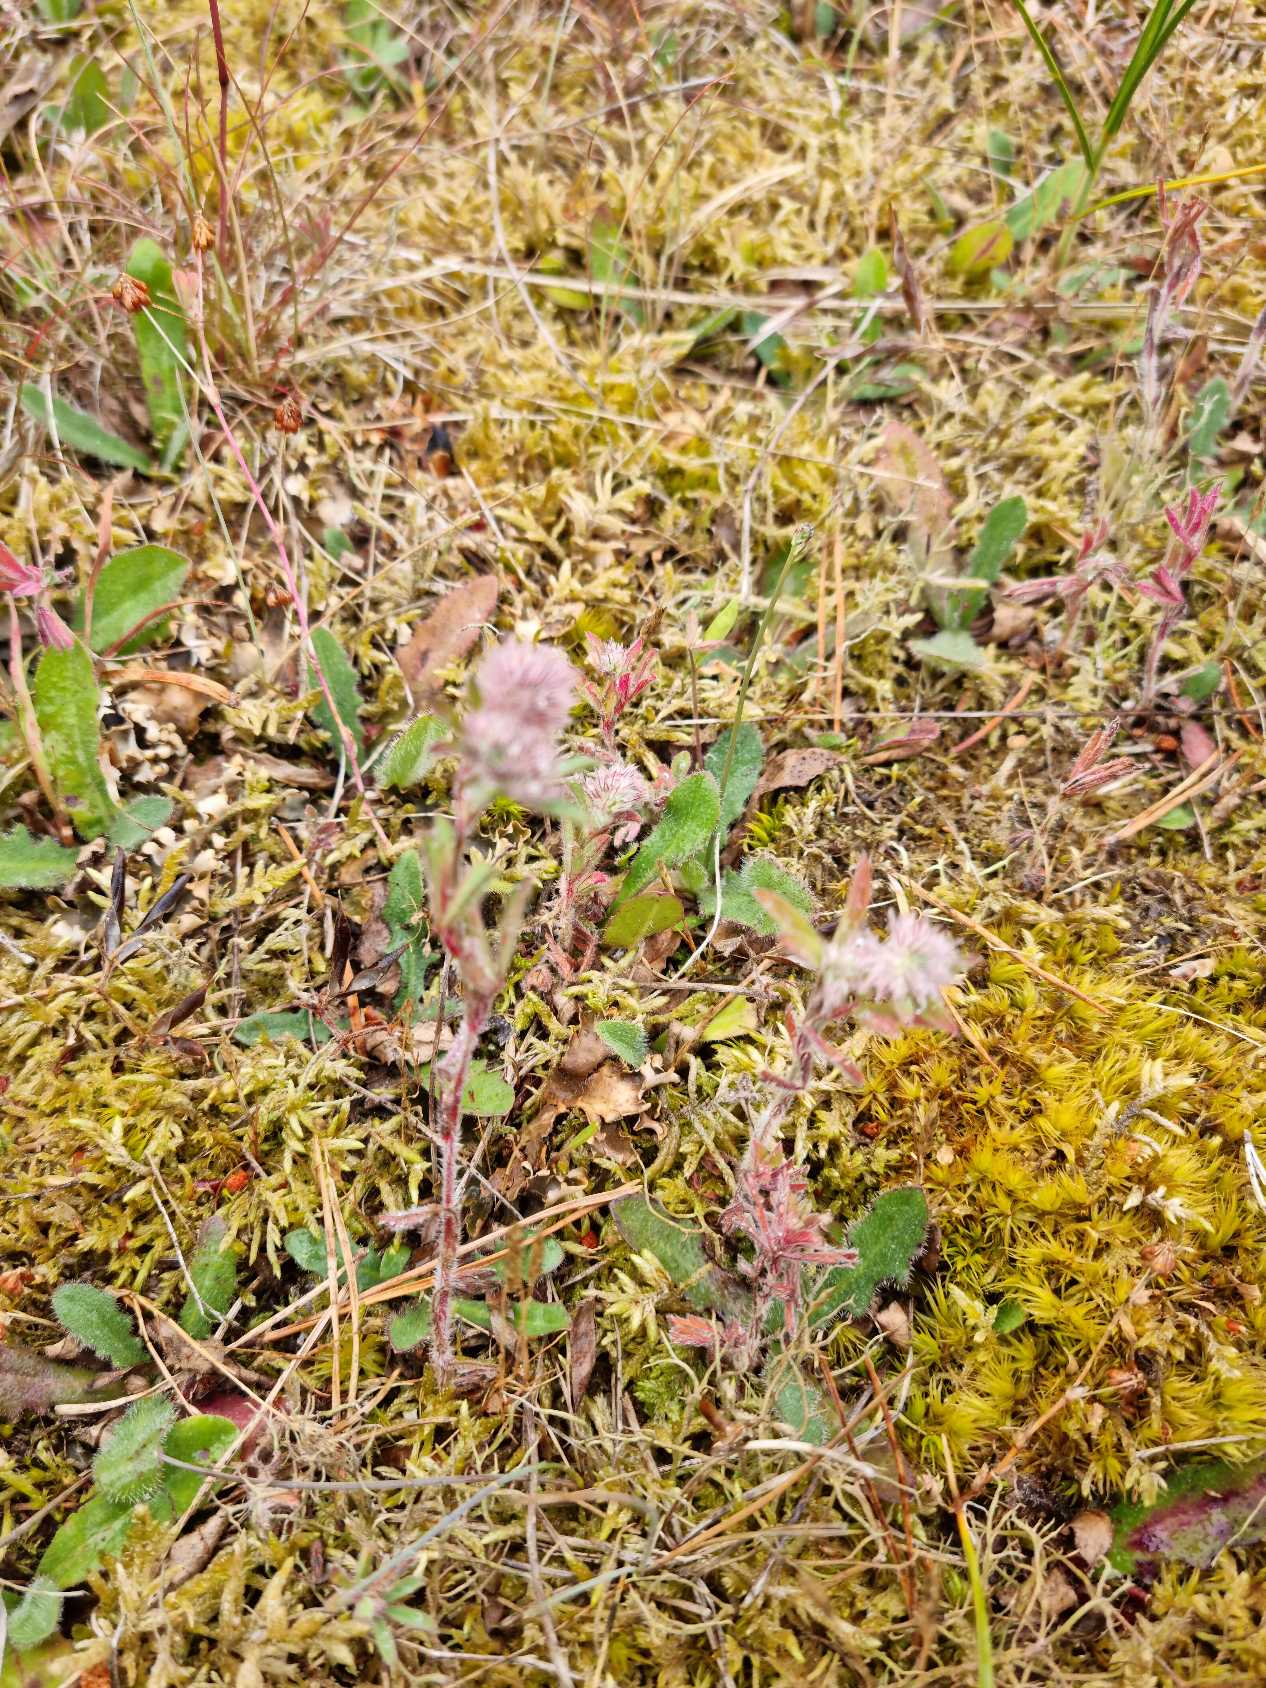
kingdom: Plantae
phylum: Tracheophyta
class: Magnoliopsida
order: Fabales
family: Fabaceae
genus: Trifolium
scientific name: Trifolium arvense
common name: Hare-kløver
